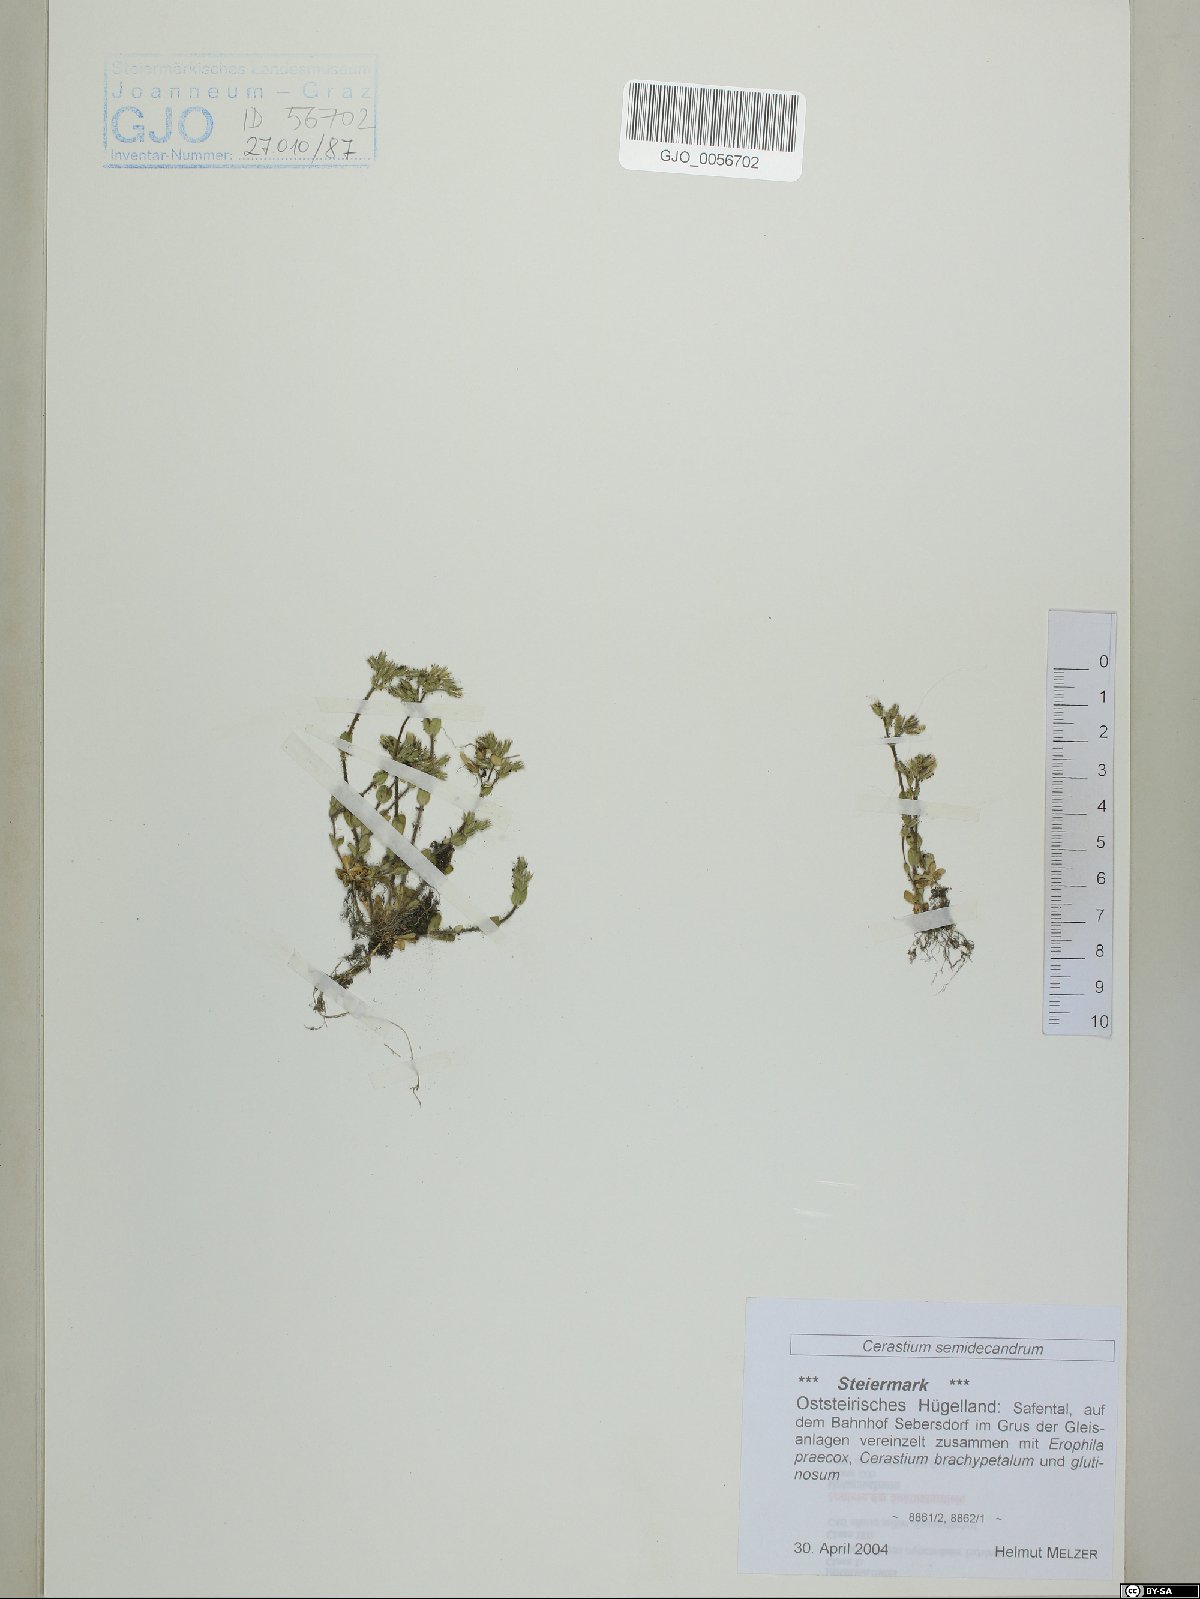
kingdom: Plantae
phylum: Tracheophyta
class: Magnoliopsida
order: Caryophyllales
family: Caryophyllaceae
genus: Cerastium
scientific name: Cerastium semidecandrum
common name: Little mouse-ear
